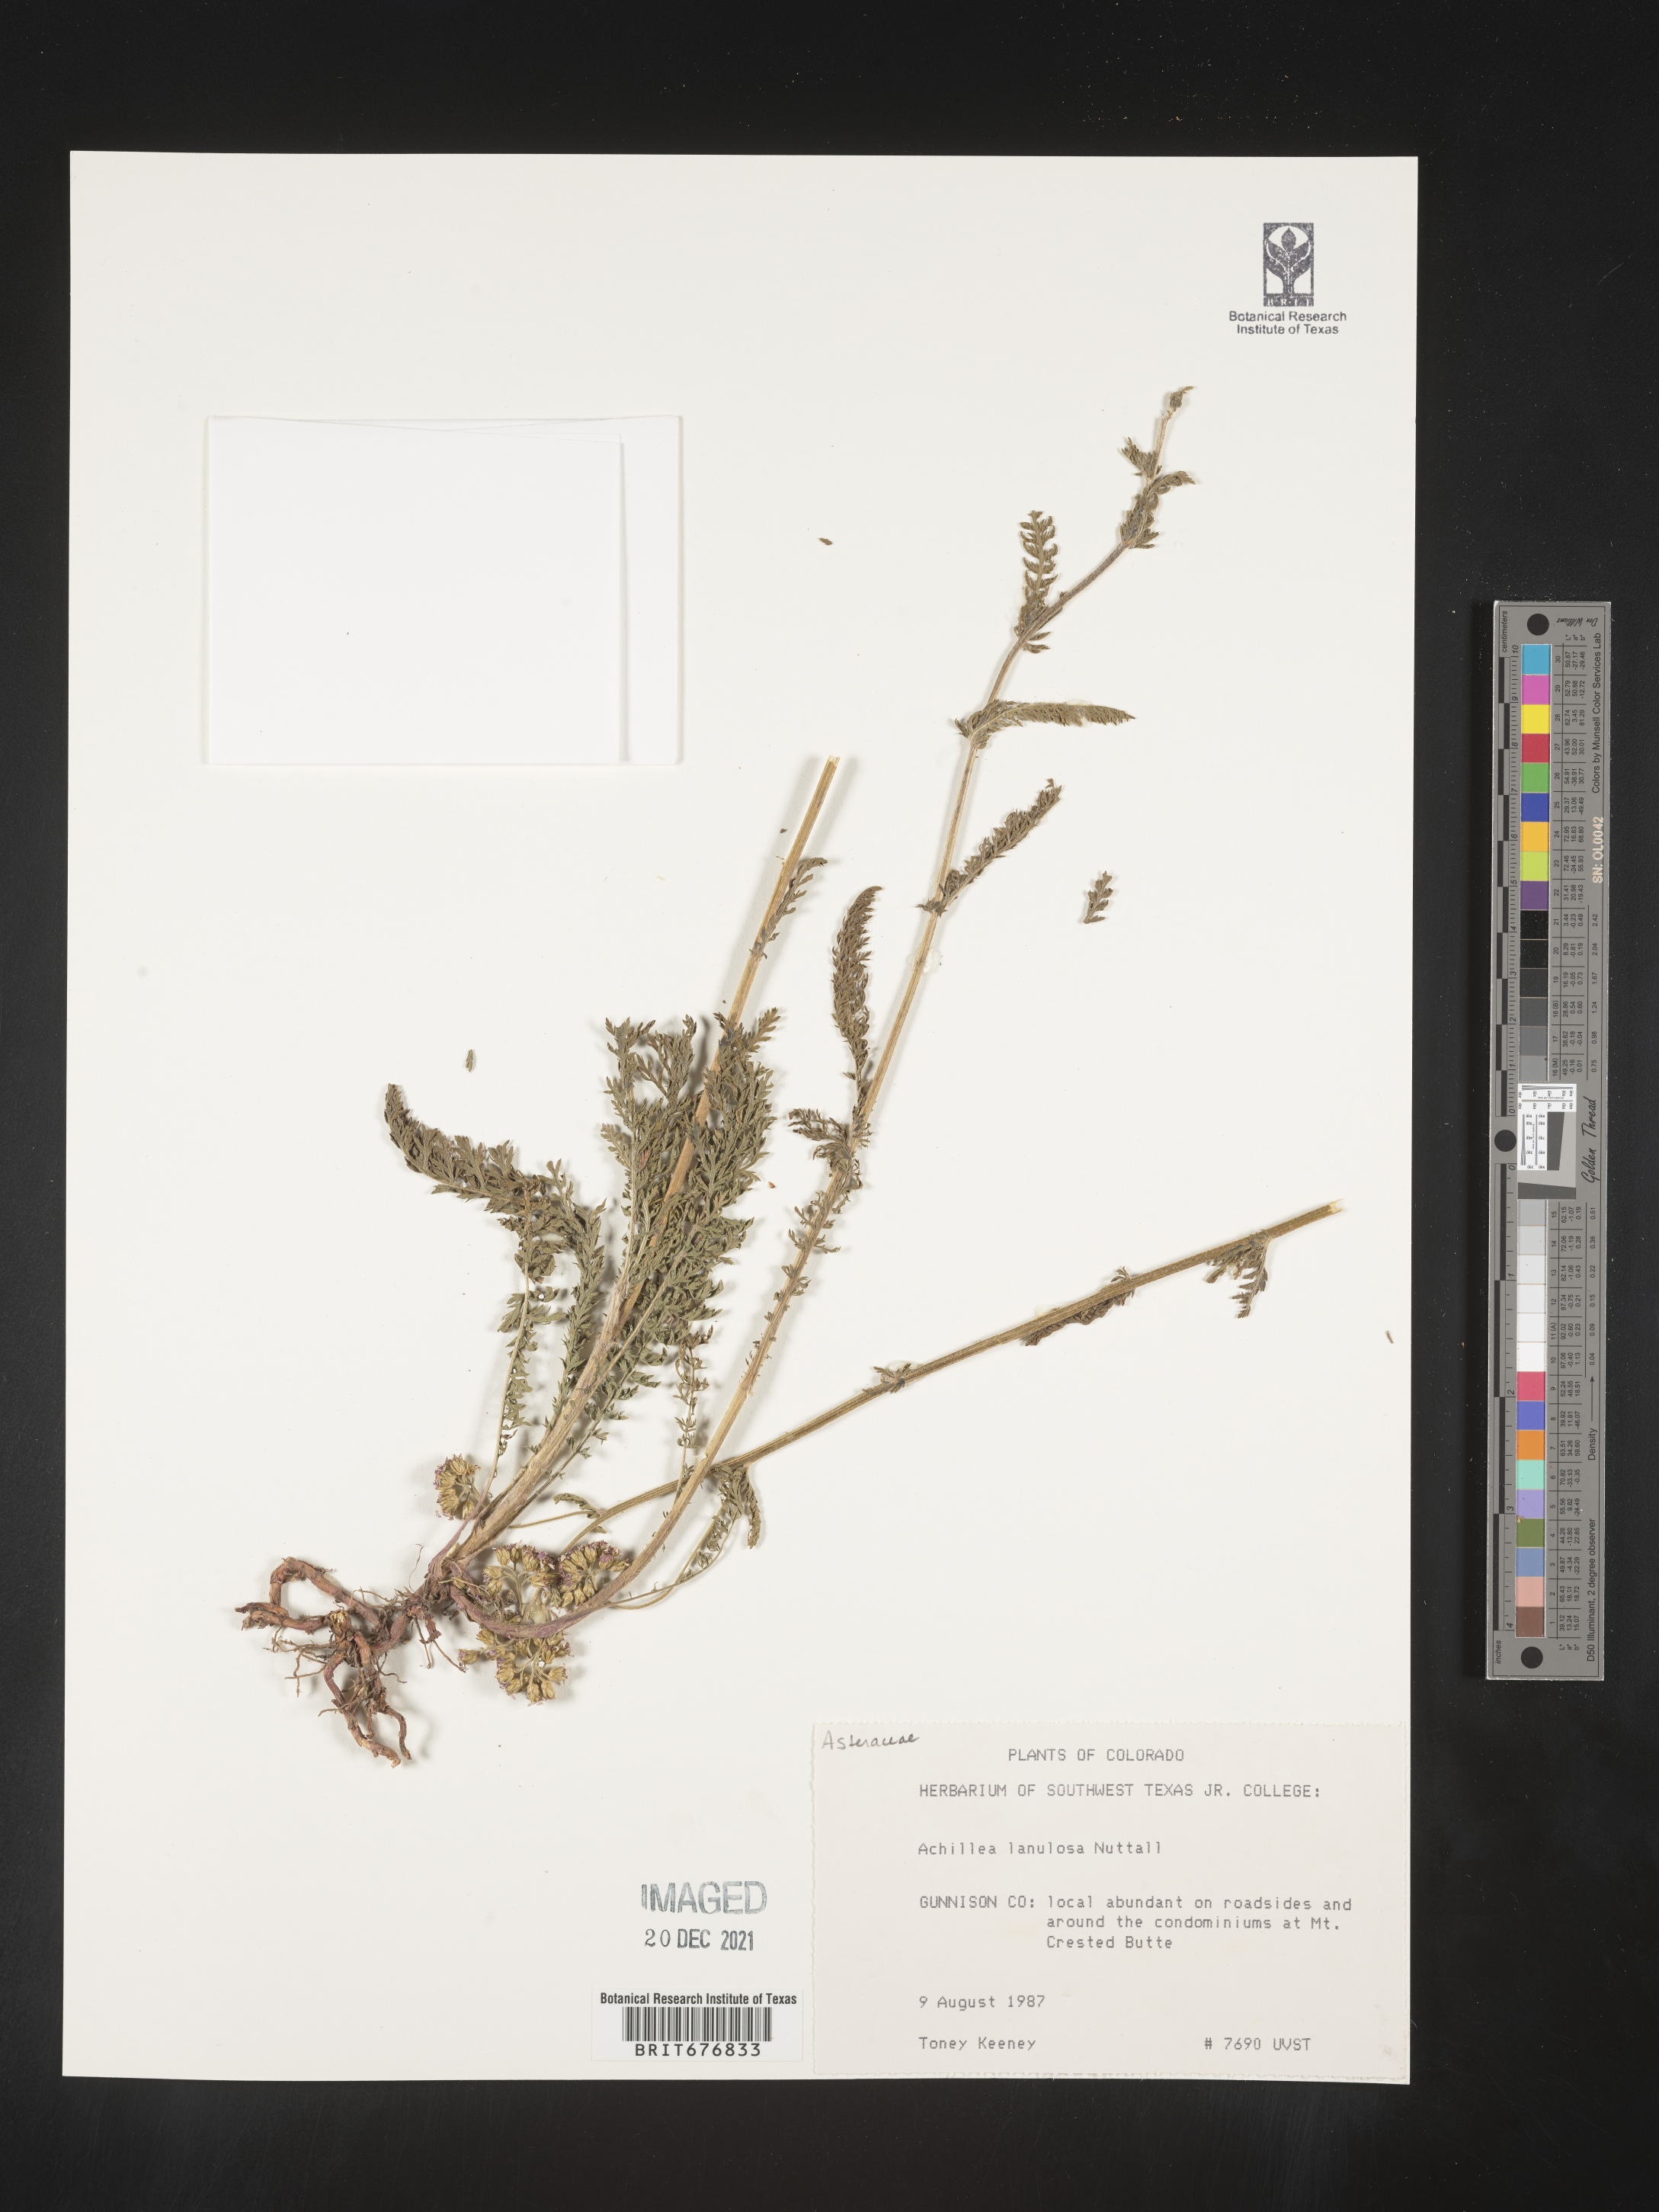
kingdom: Plantae
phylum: Tracheophyta
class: Magnoliopsida
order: Asterales
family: Asteraceae
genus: Achillea
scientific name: Achillea millefolium
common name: Yarrow
